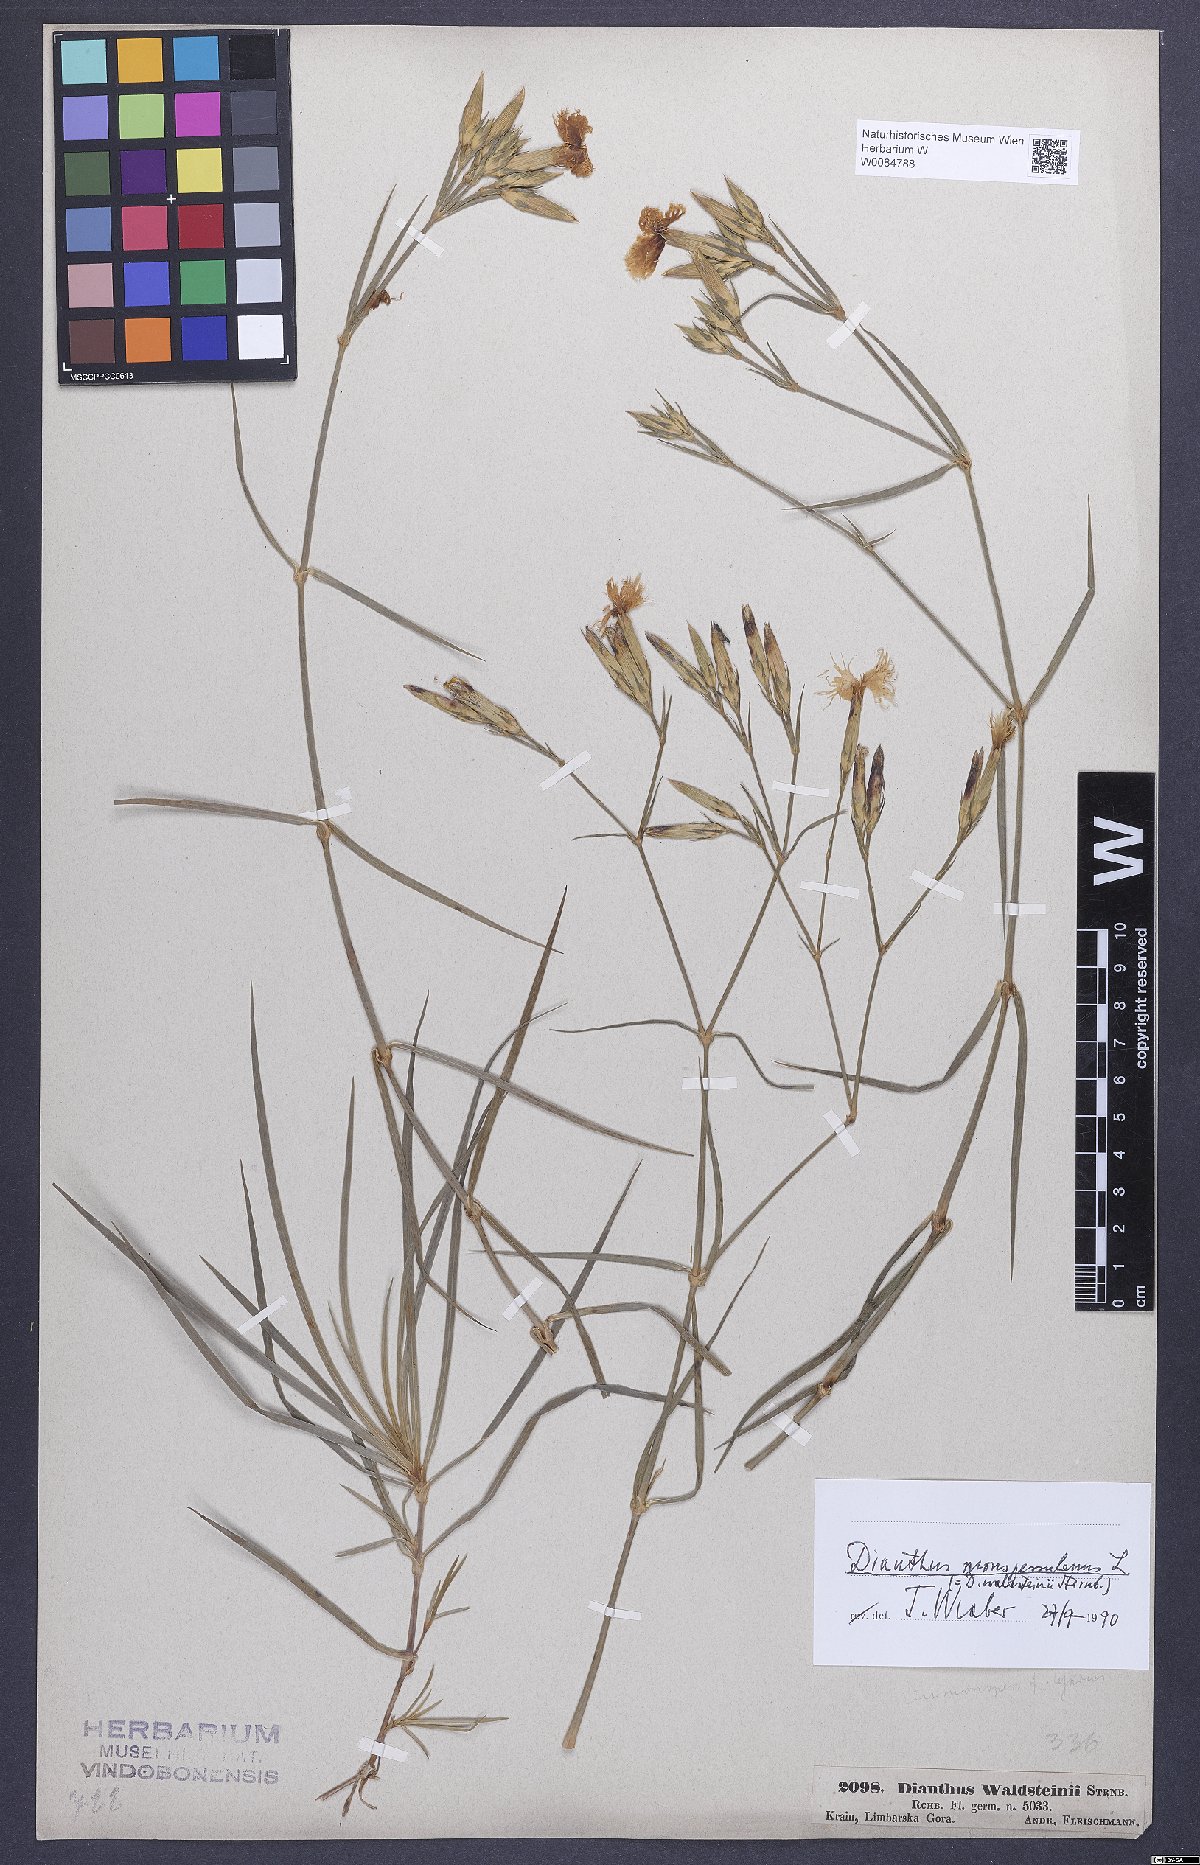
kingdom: Plantae
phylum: Tracheophyta
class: Magnoliopsida
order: Caryophyllales
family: Caryophyllaceae
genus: Dianthus
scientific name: Dianthus monspessulanus
